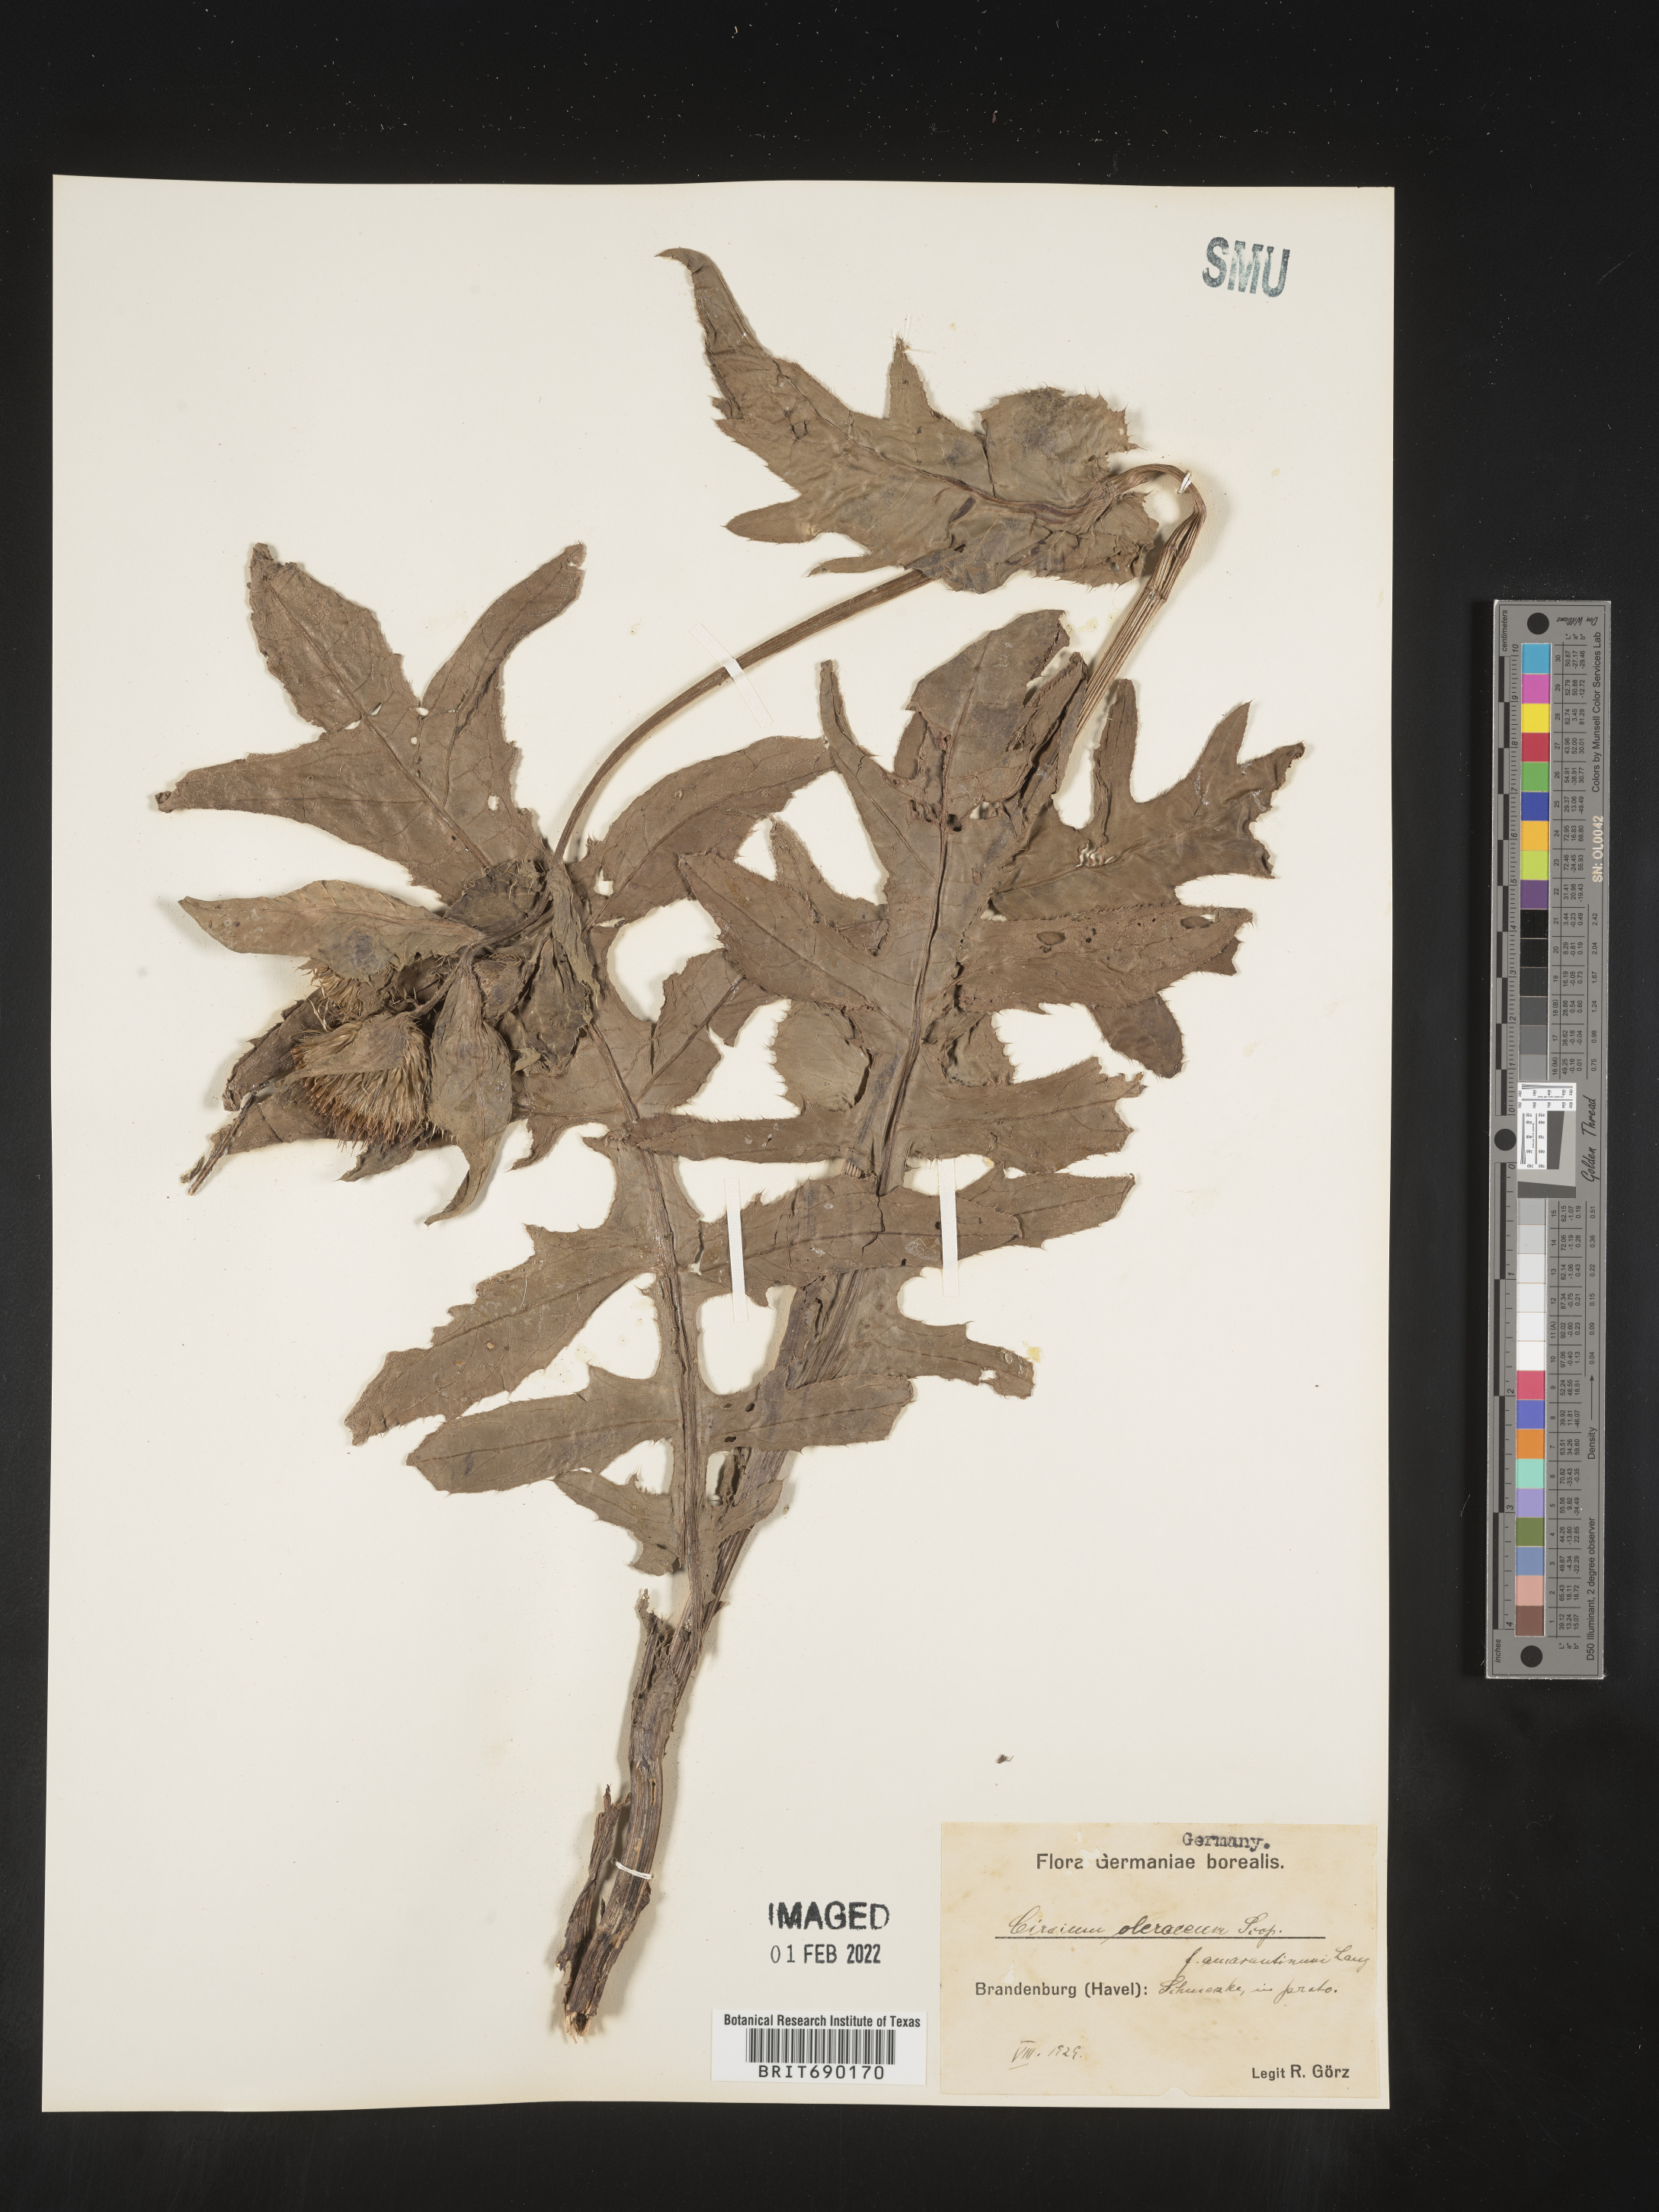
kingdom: Plantae
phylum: Tracheophyta
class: Magnoliopsida
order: Asterales
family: Asteraceae
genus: Cirsium
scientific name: Cirsium
